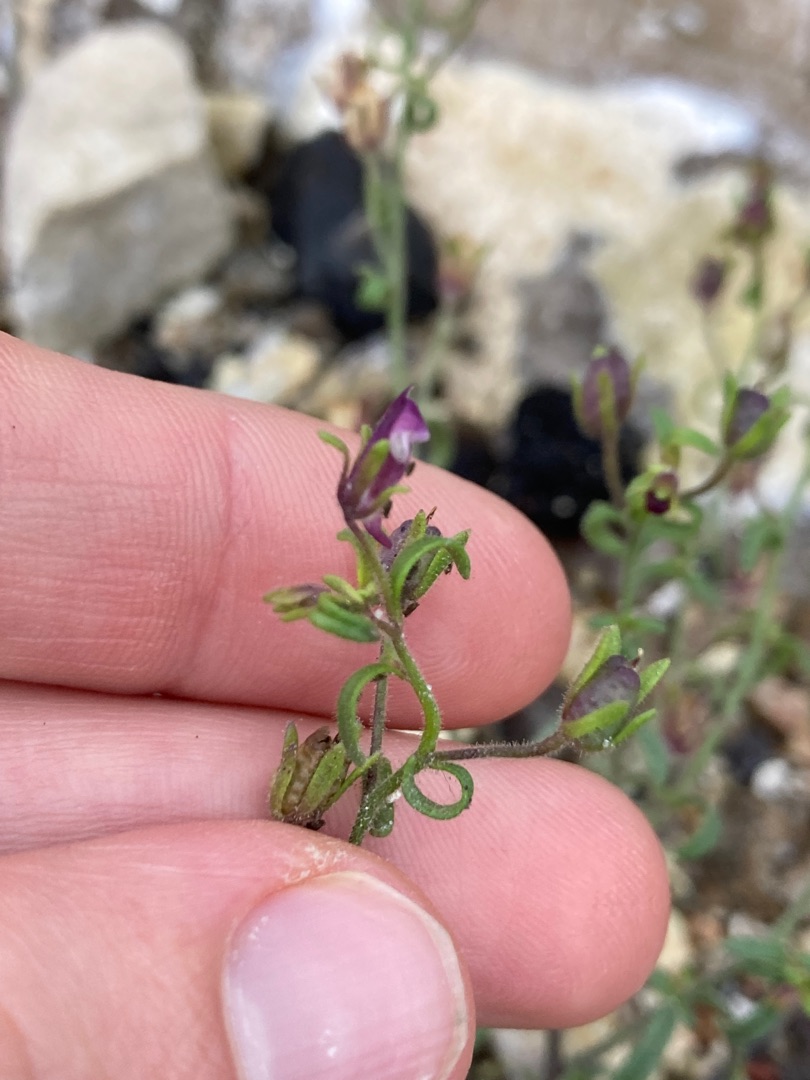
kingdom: Plantae
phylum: Tracheophyta
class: Magnoliopsida
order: Lamiales
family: Plantaginaceae
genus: Chaenorhinum
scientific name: Chaenorhinum minus
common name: Liden torskemund
